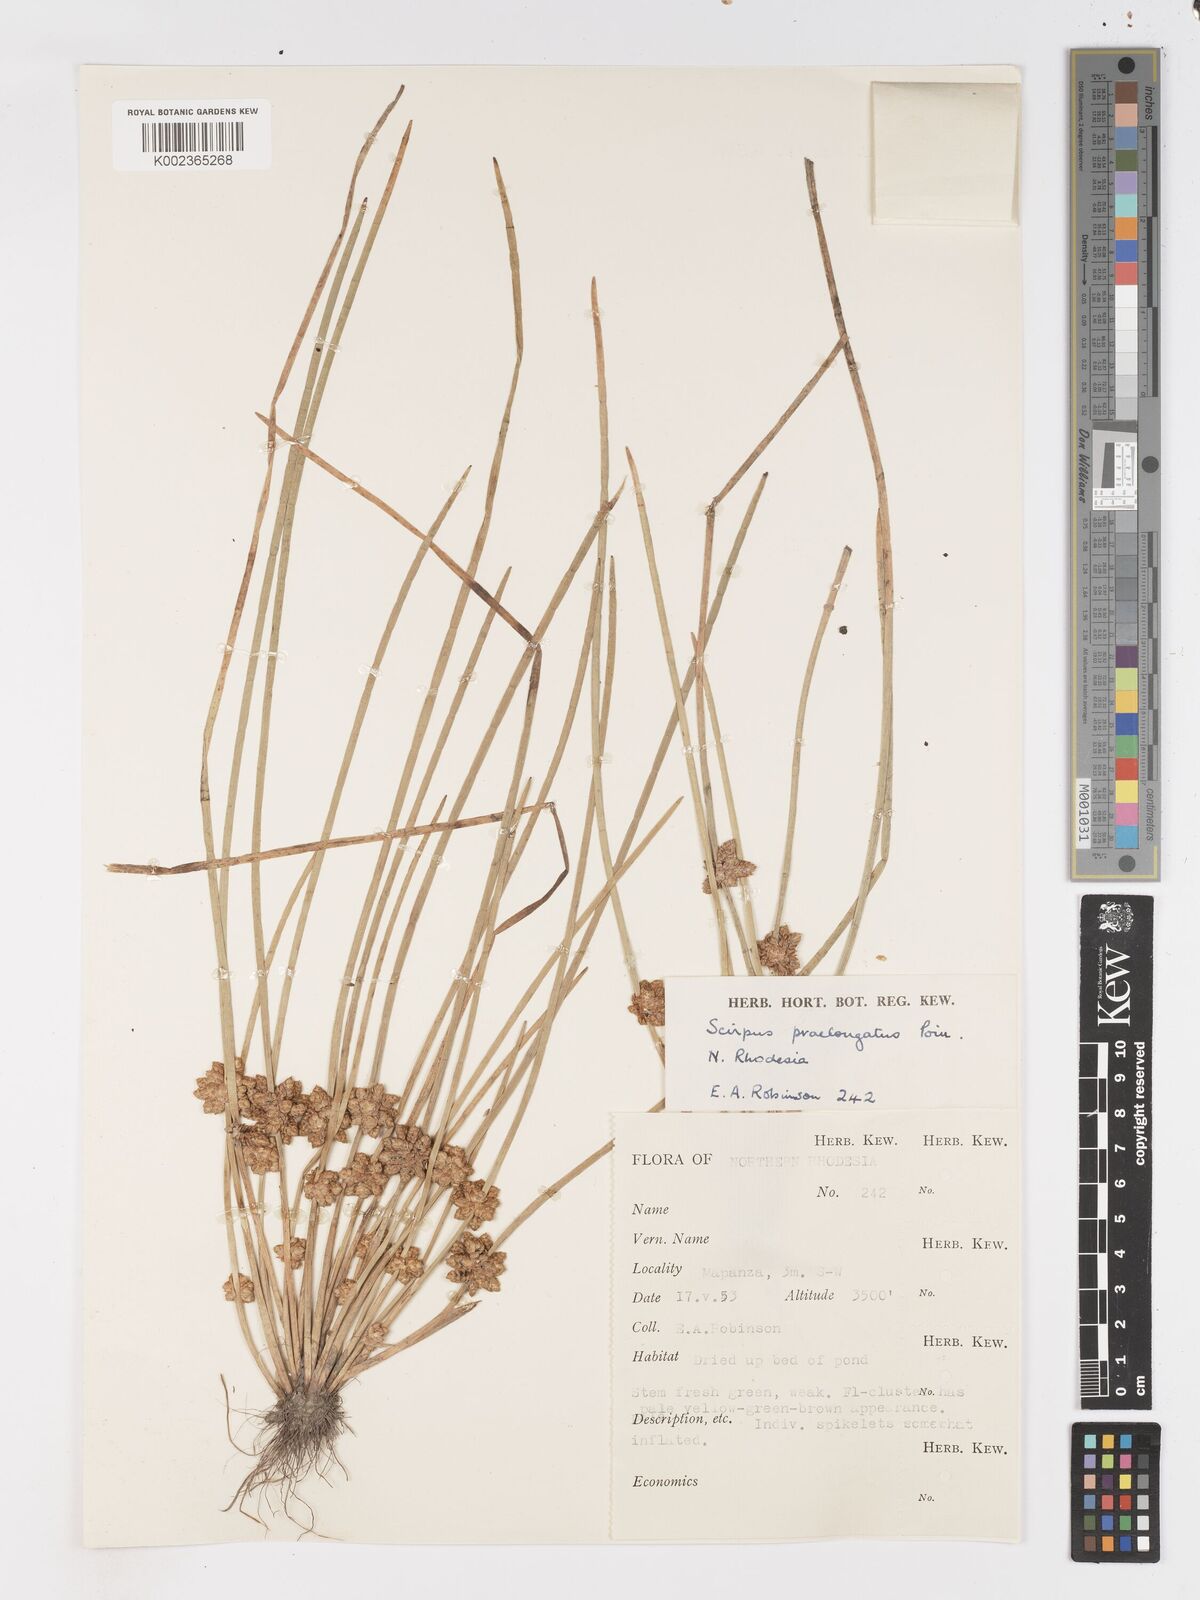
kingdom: Plantae
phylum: Tracheophyta
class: Liliopsida
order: Poales
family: Cyperaceae
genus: Schoenoplectiella
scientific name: Schoenoplectiella senegalensis
